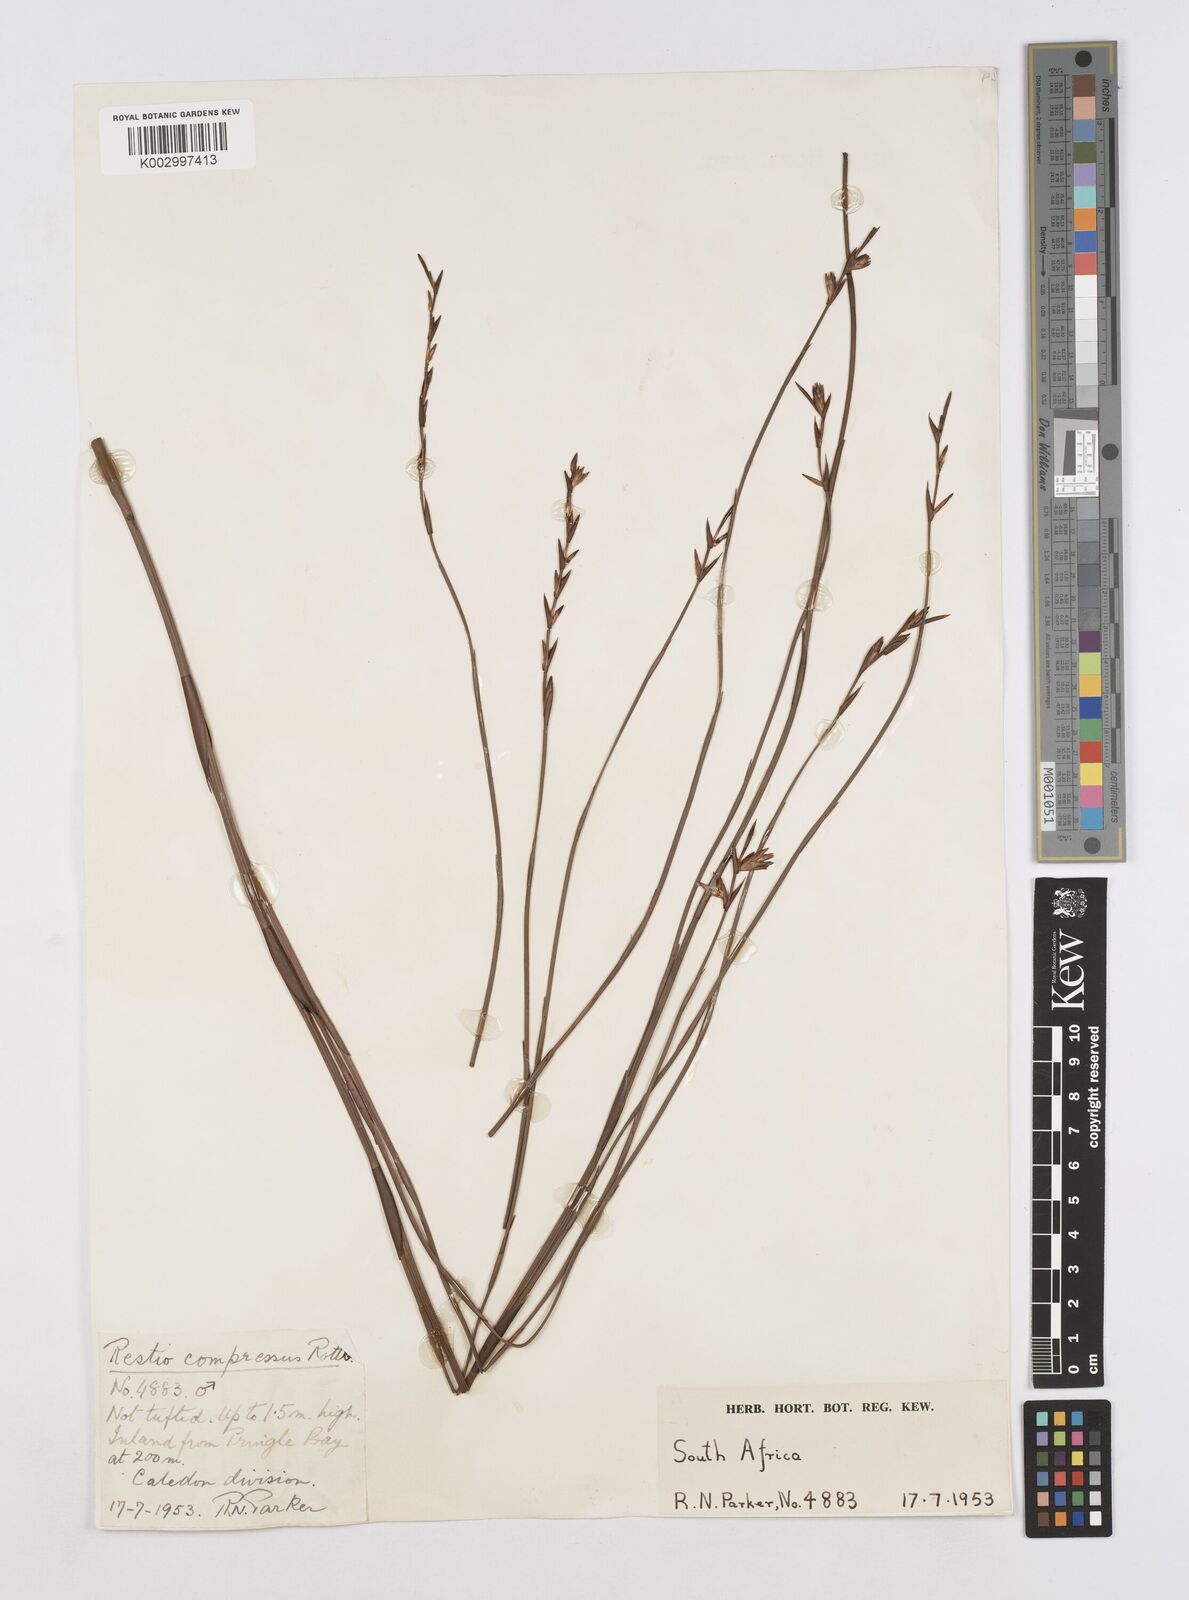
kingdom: Plantae
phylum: Tracheophyta
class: Liliopsida
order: Poales
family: Restionaceae
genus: Platycaulos
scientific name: Platycaulos compressus
